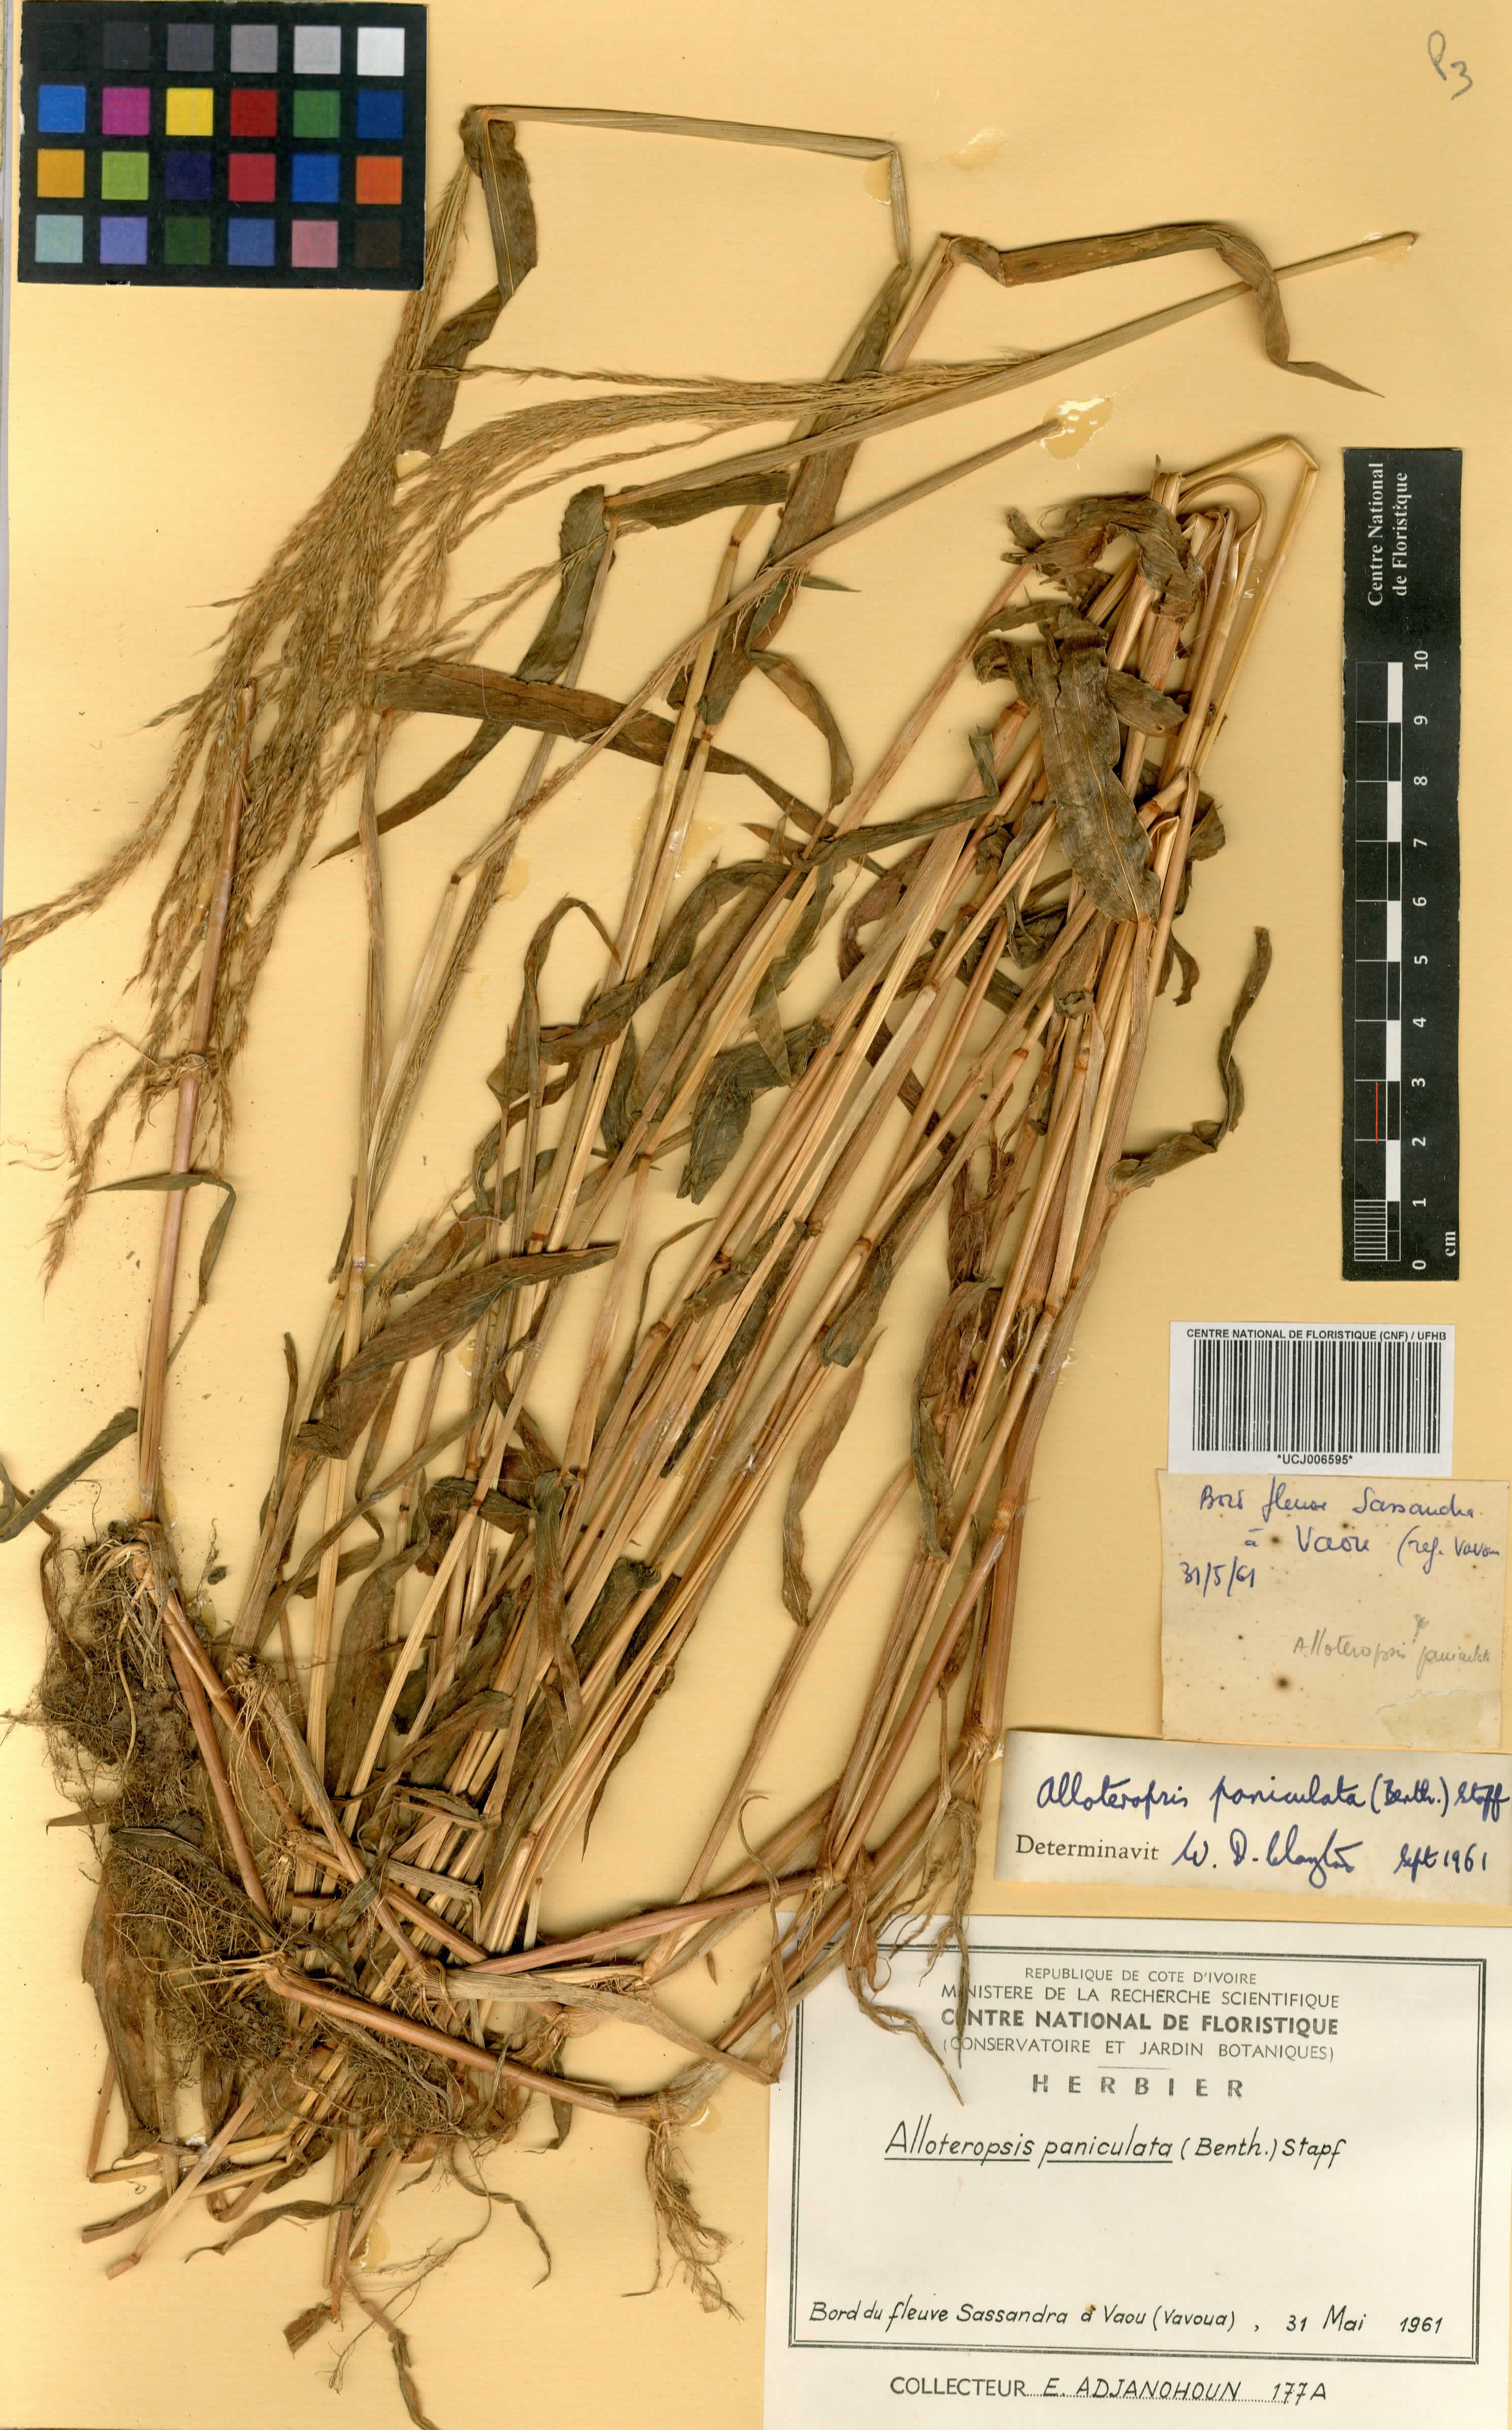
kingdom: Plantae
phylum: Tracheophyta
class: Liliopsida
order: Poales
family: Poaceae
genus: Alloteropsis
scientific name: Alloteropsis paniculata
